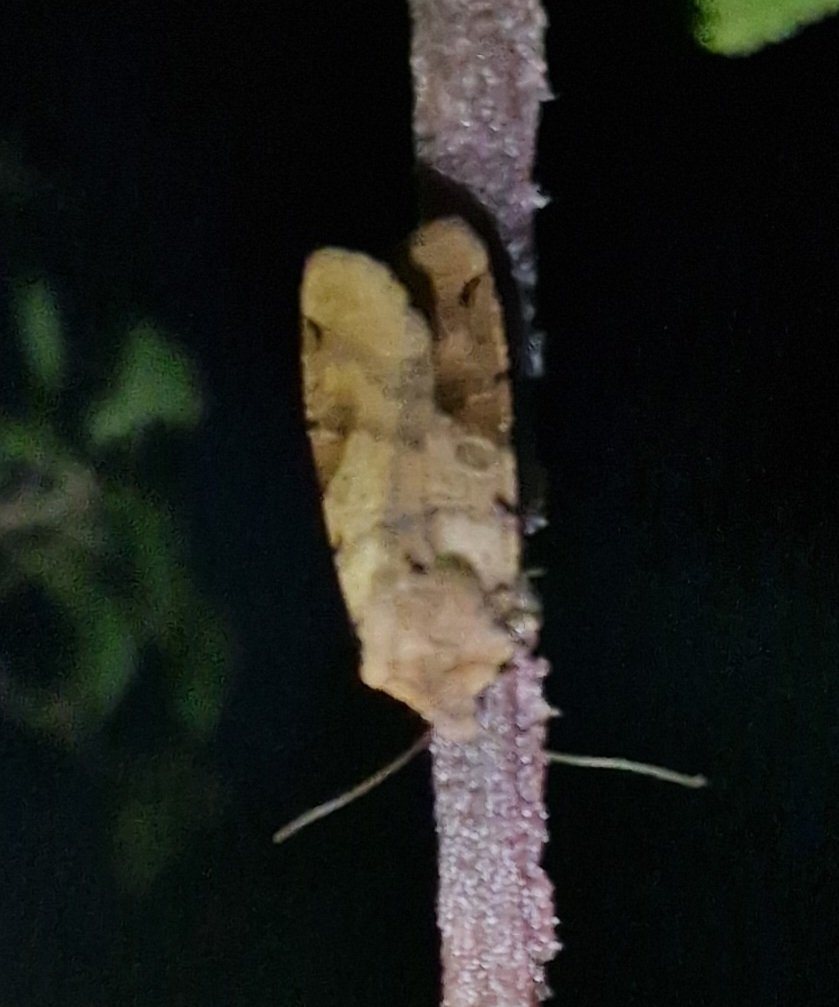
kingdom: Animalia
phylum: Arthropoda
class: Insecta
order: Lepidoptera
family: Noctuidae
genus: Agrochola
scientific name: Agrochola litura
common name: Kantplettet jordfarveugle
